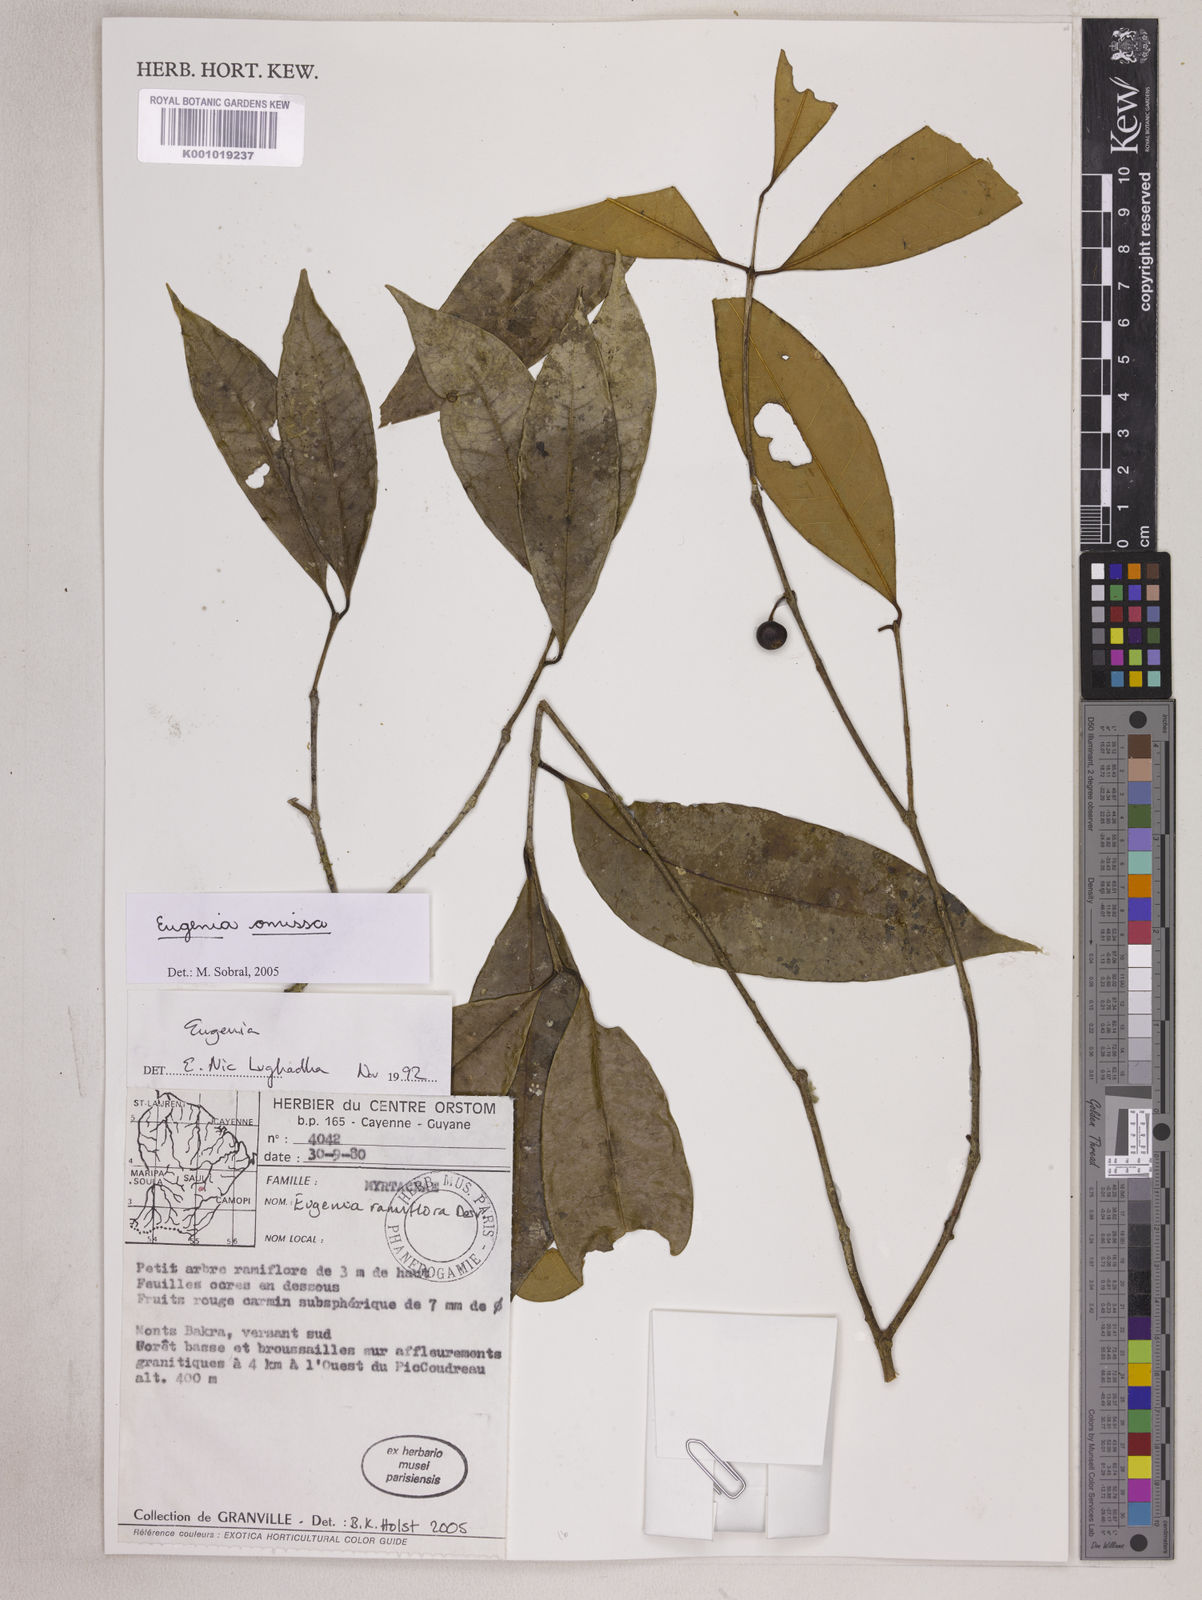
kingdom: Plantae
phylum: Tracheophyta
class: Magnoliopsida
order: Myrtales
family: Myrtaceae
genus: Eugenia
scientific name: Eugenia omissa
